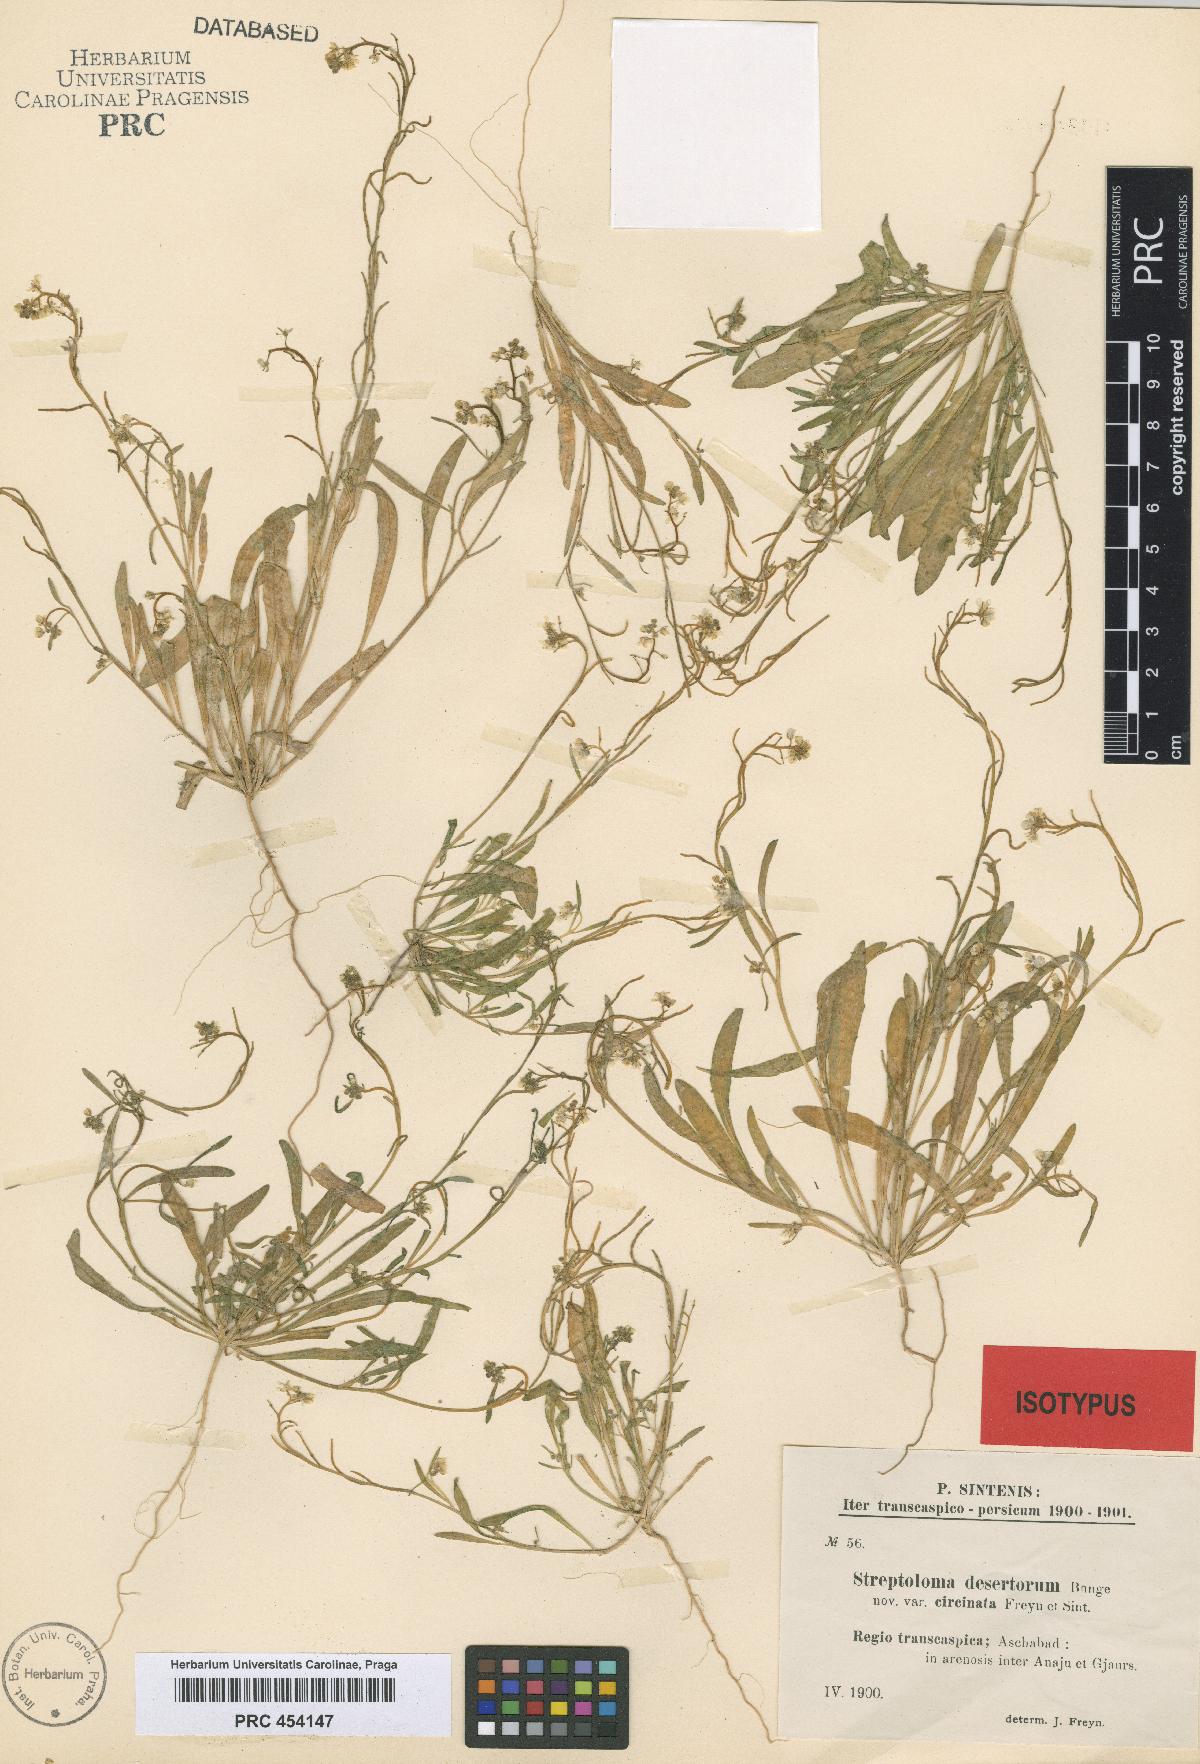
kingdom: Plantae
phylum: Tracheophyta
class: Magnoliopsida
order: Brassicales
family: Brassicaceae
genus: Streptoloma
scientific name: Streptoloma desertorum
